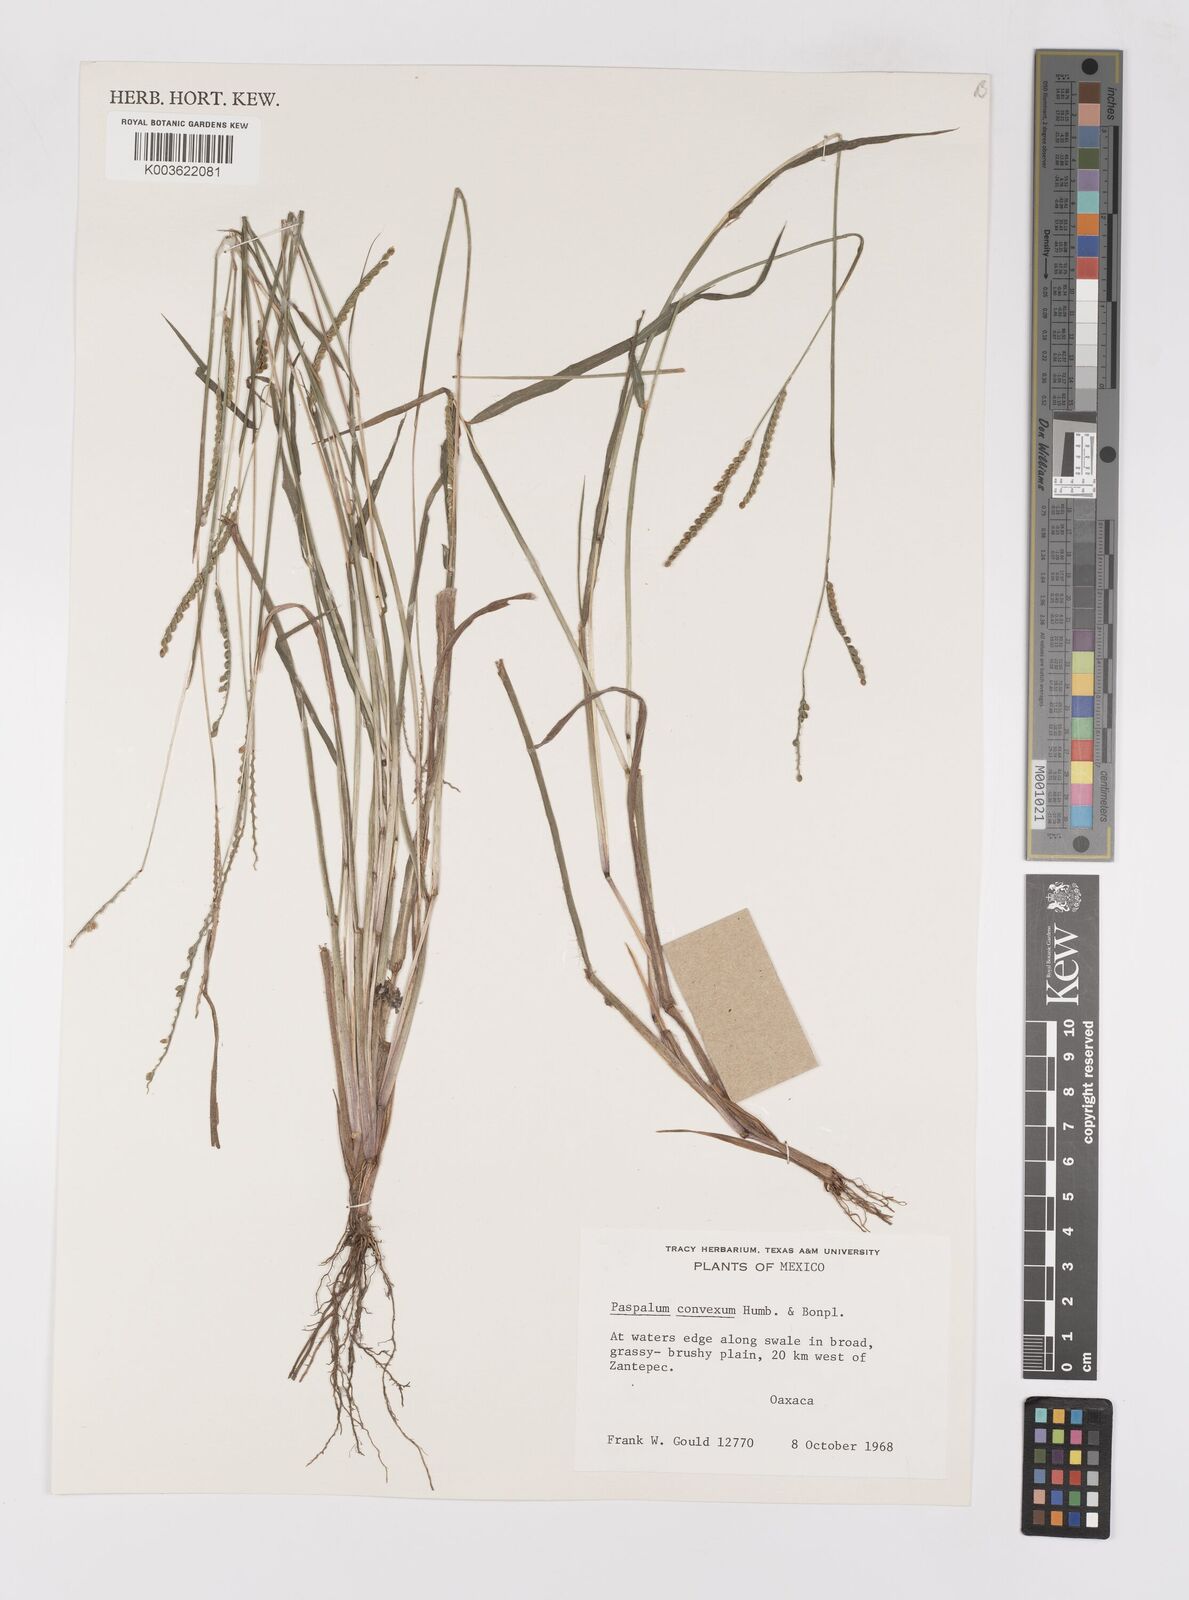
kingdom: Plantae
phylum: Tracheophyta
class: Liliopsida
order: Poales
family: Poaceae
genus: Paspalum
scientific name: Paspalum convexum
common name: Latin american crowngrass
